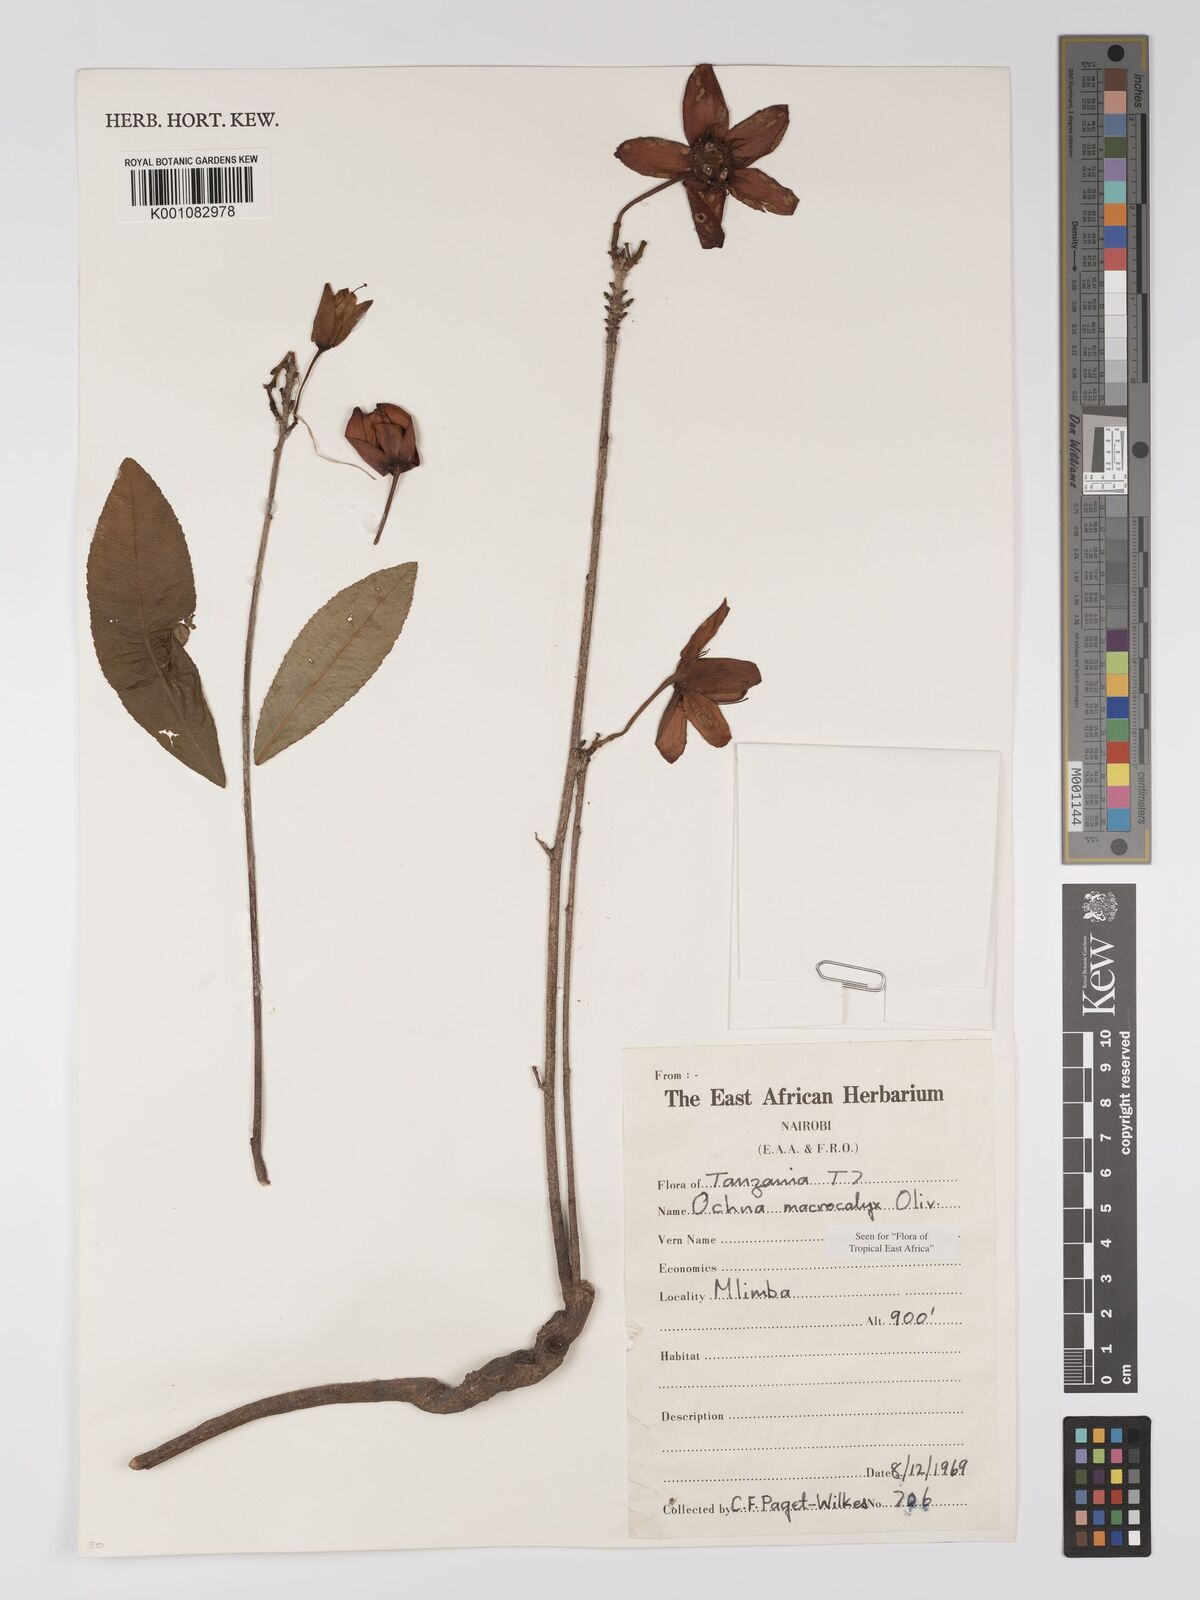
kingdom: Plantae
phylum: Tracheophyta
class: Magnoliopsida
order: Malpighiales
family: Ochnaceae
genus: Ochna
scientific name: Ochna macrocalyx
